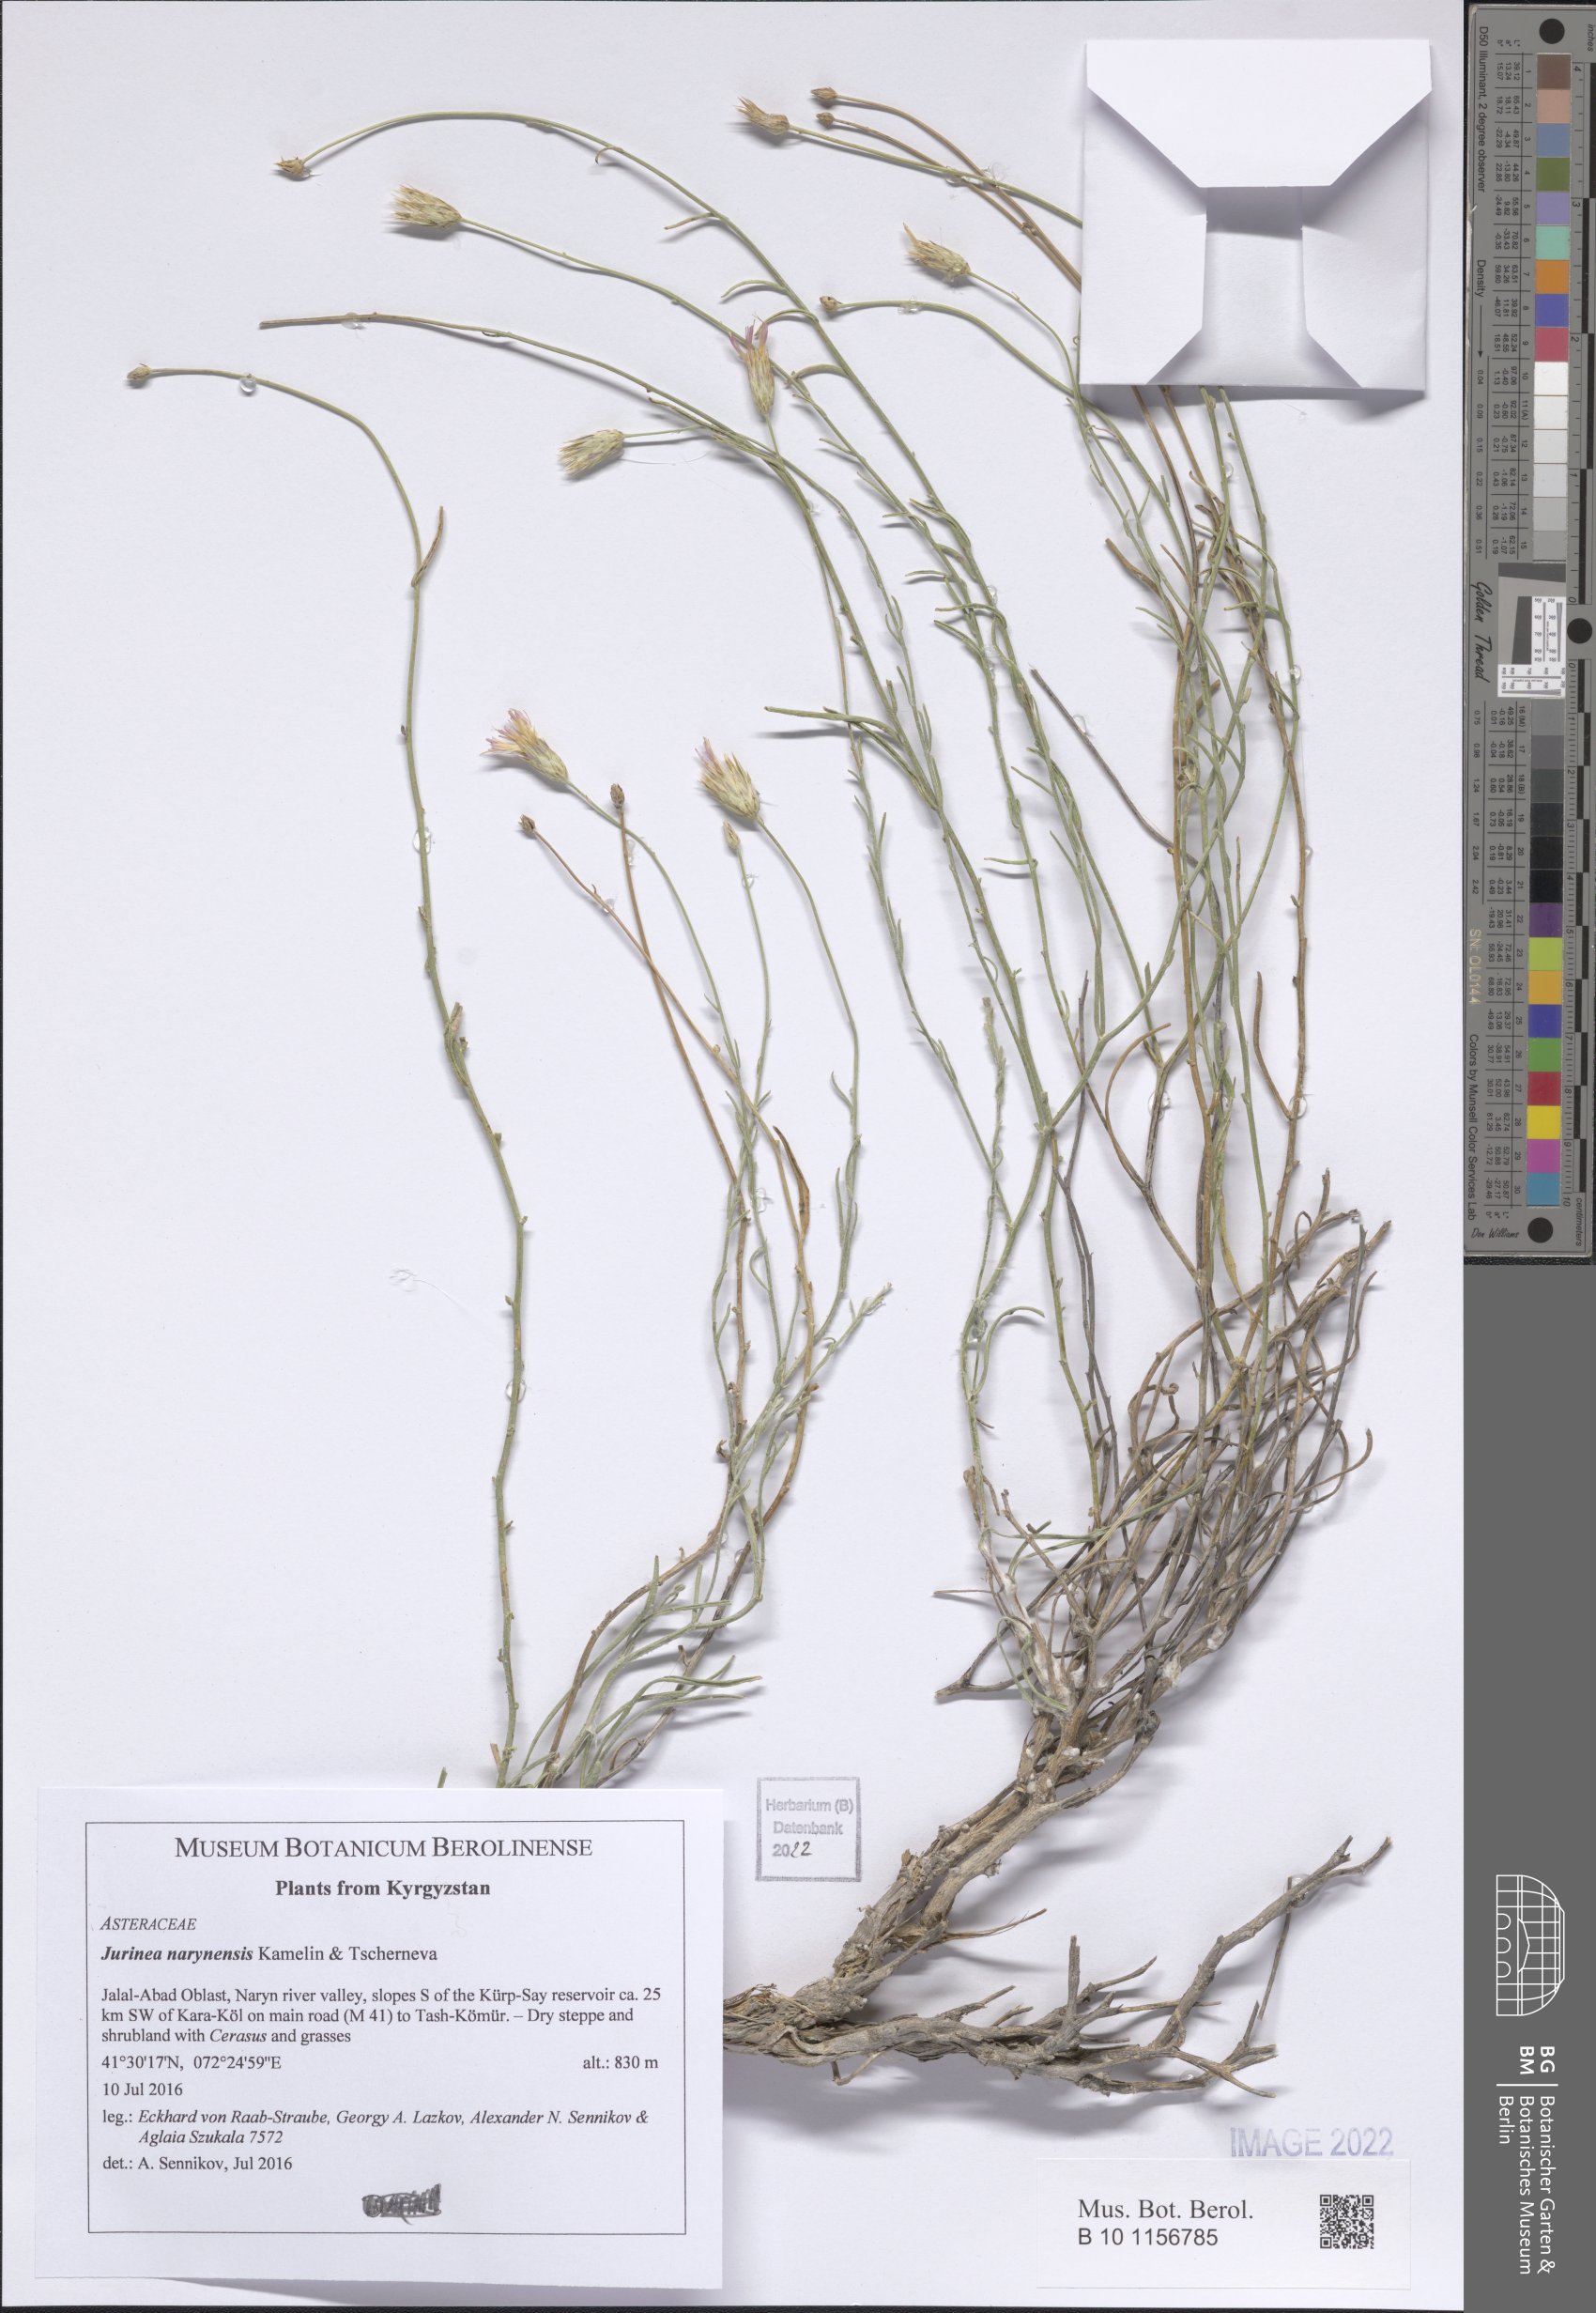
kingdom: Plantae
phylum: Tracheophyta
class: Magnoliopsida
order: Asterales
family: Asteraceae
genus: Jurinea
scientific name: Jurinea narynensis
